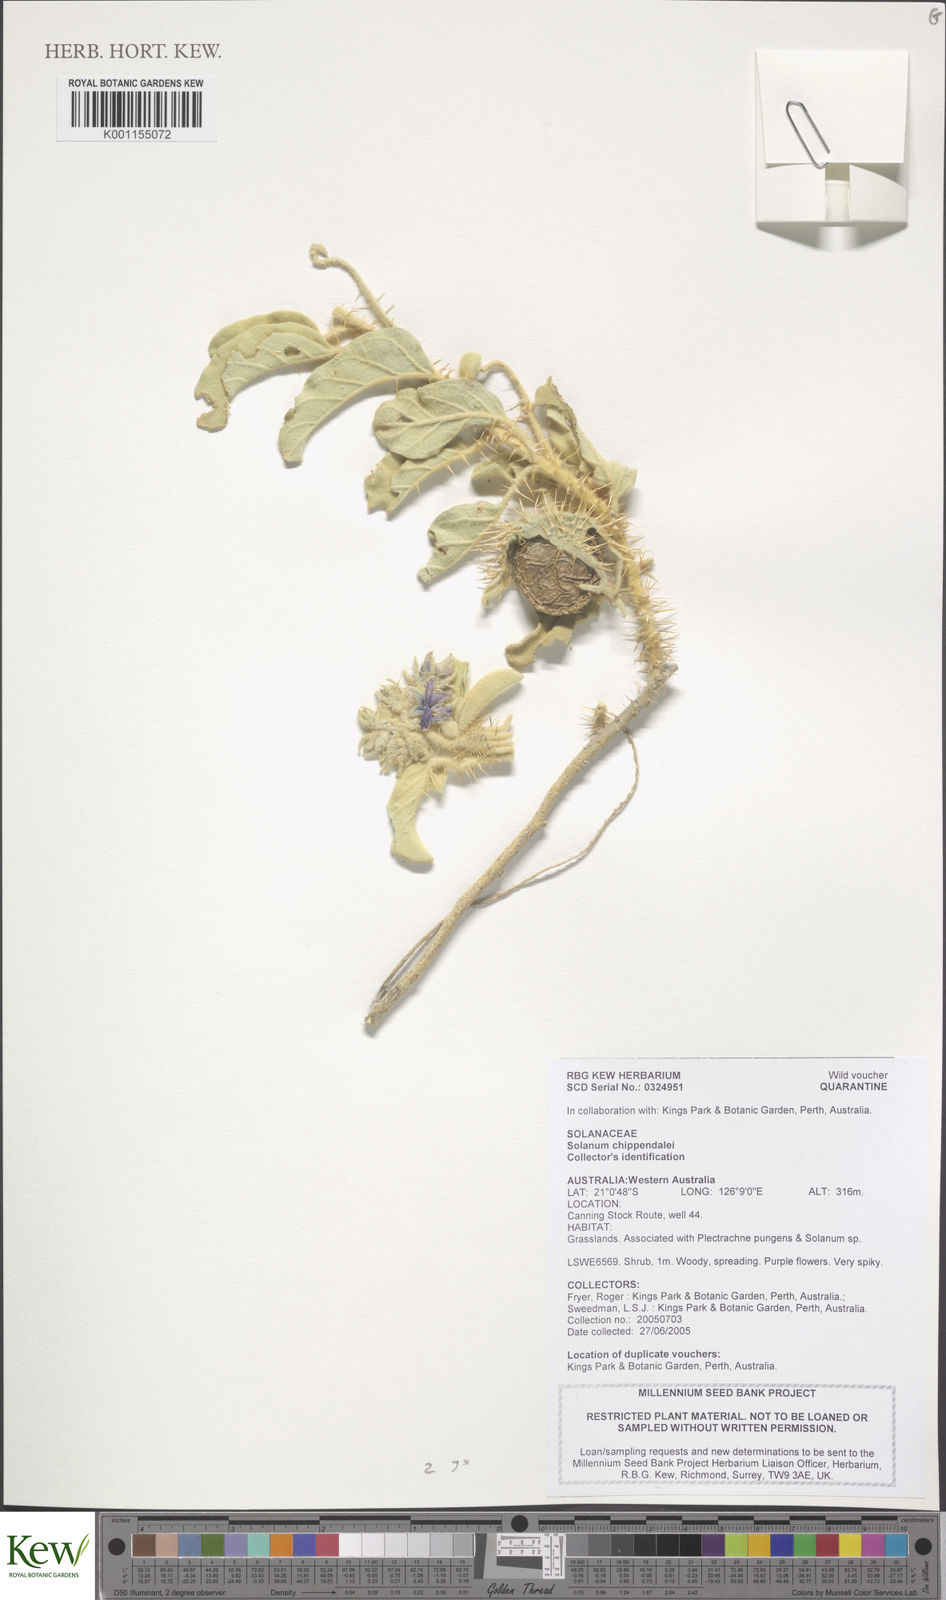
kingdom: Plantae
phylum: Tracheophyta
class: Magnoliopsida
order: Solanales
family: Solanaceae
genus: Solanum
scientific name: Solanum chippendalei
